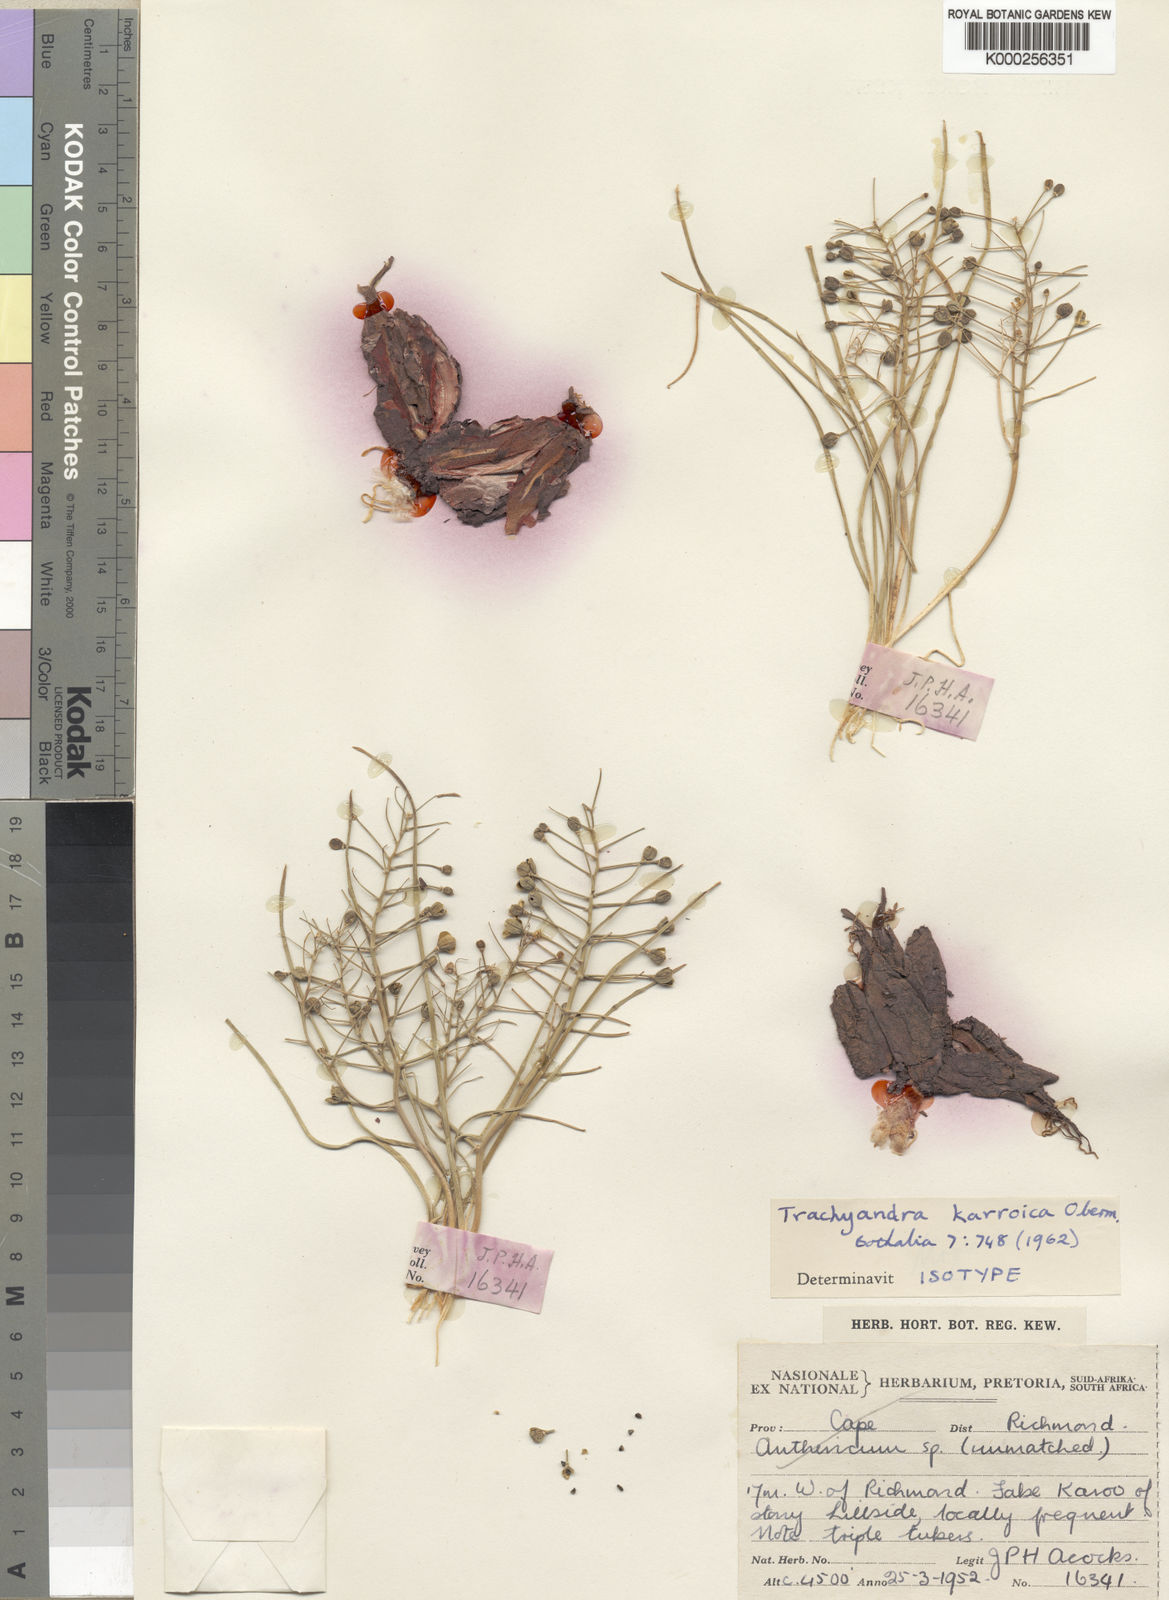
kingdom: Plantae
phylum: Tracheophyta
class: Liliopsida
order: Asparagales
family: Asphodelaceae
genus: Trachyandra
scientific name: Trachyandra karrooica
